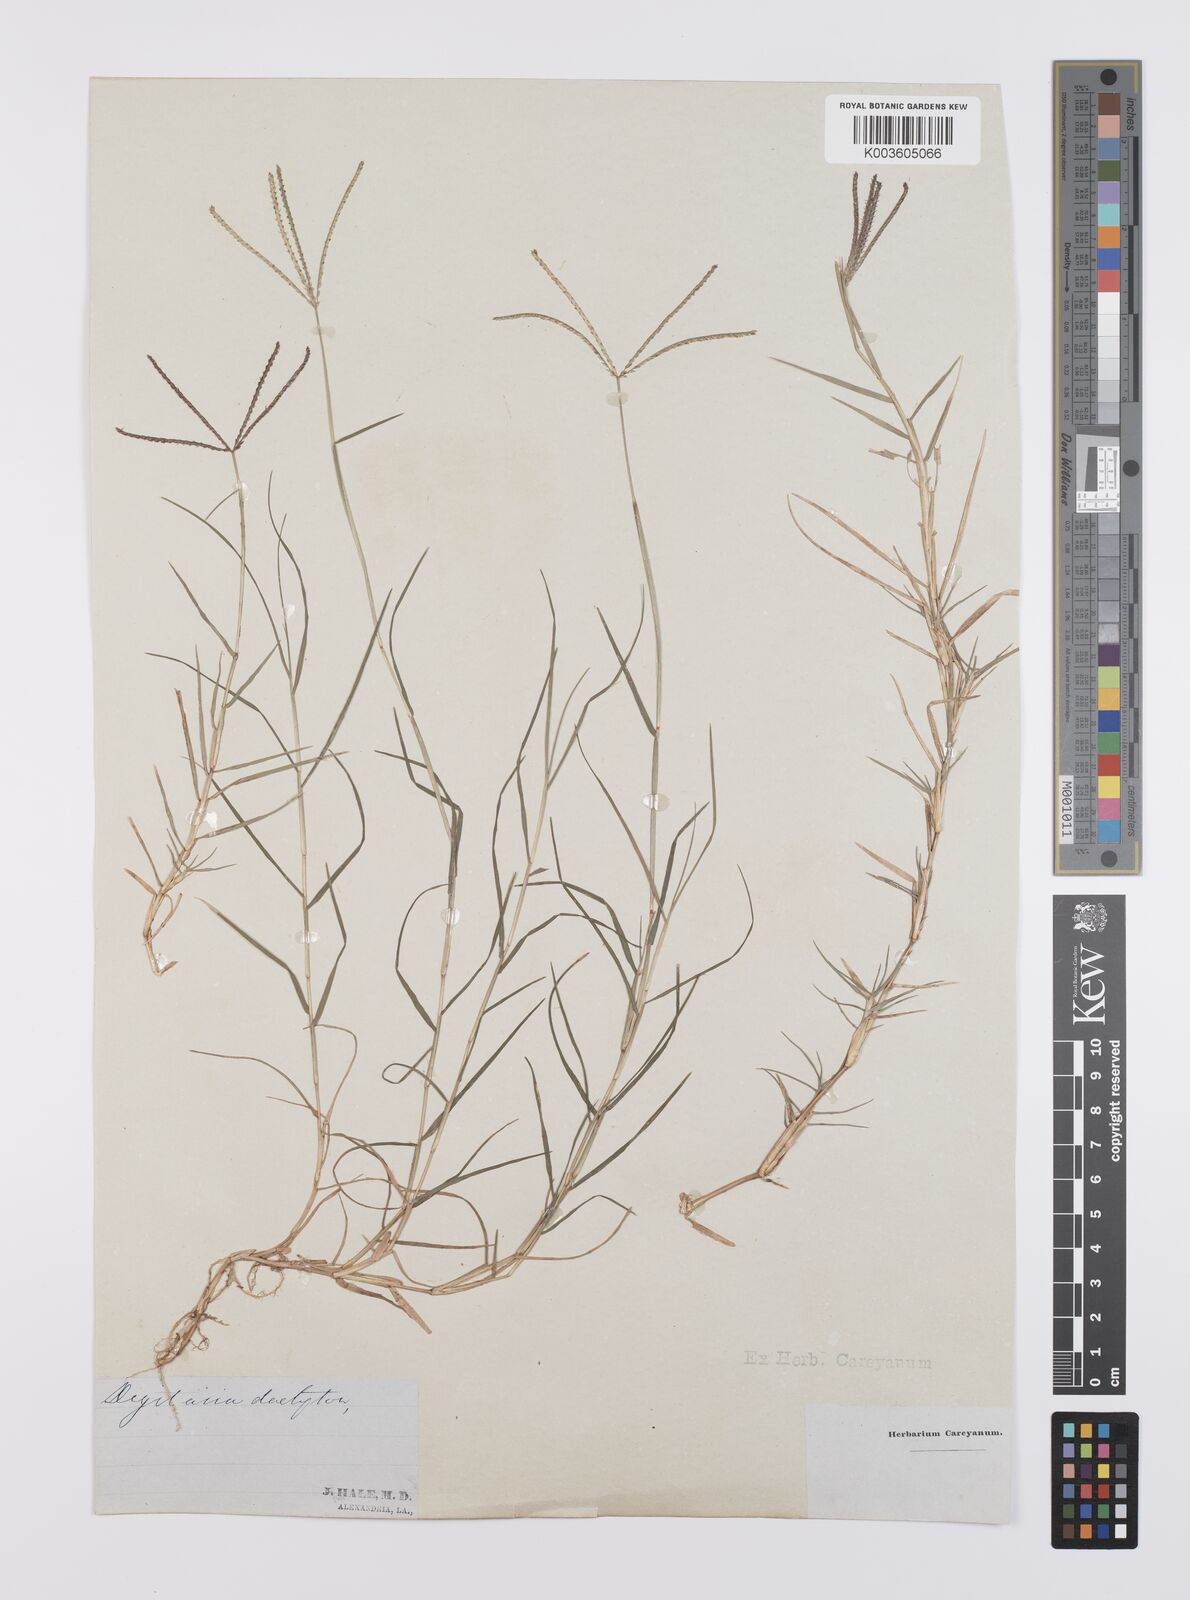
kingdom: Plantae
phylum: Tracheophyta
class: Liliopsida
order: Poales
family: Poaceae
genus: Cynodon
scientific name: Cynodon dactylon
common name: Bermuda grass
